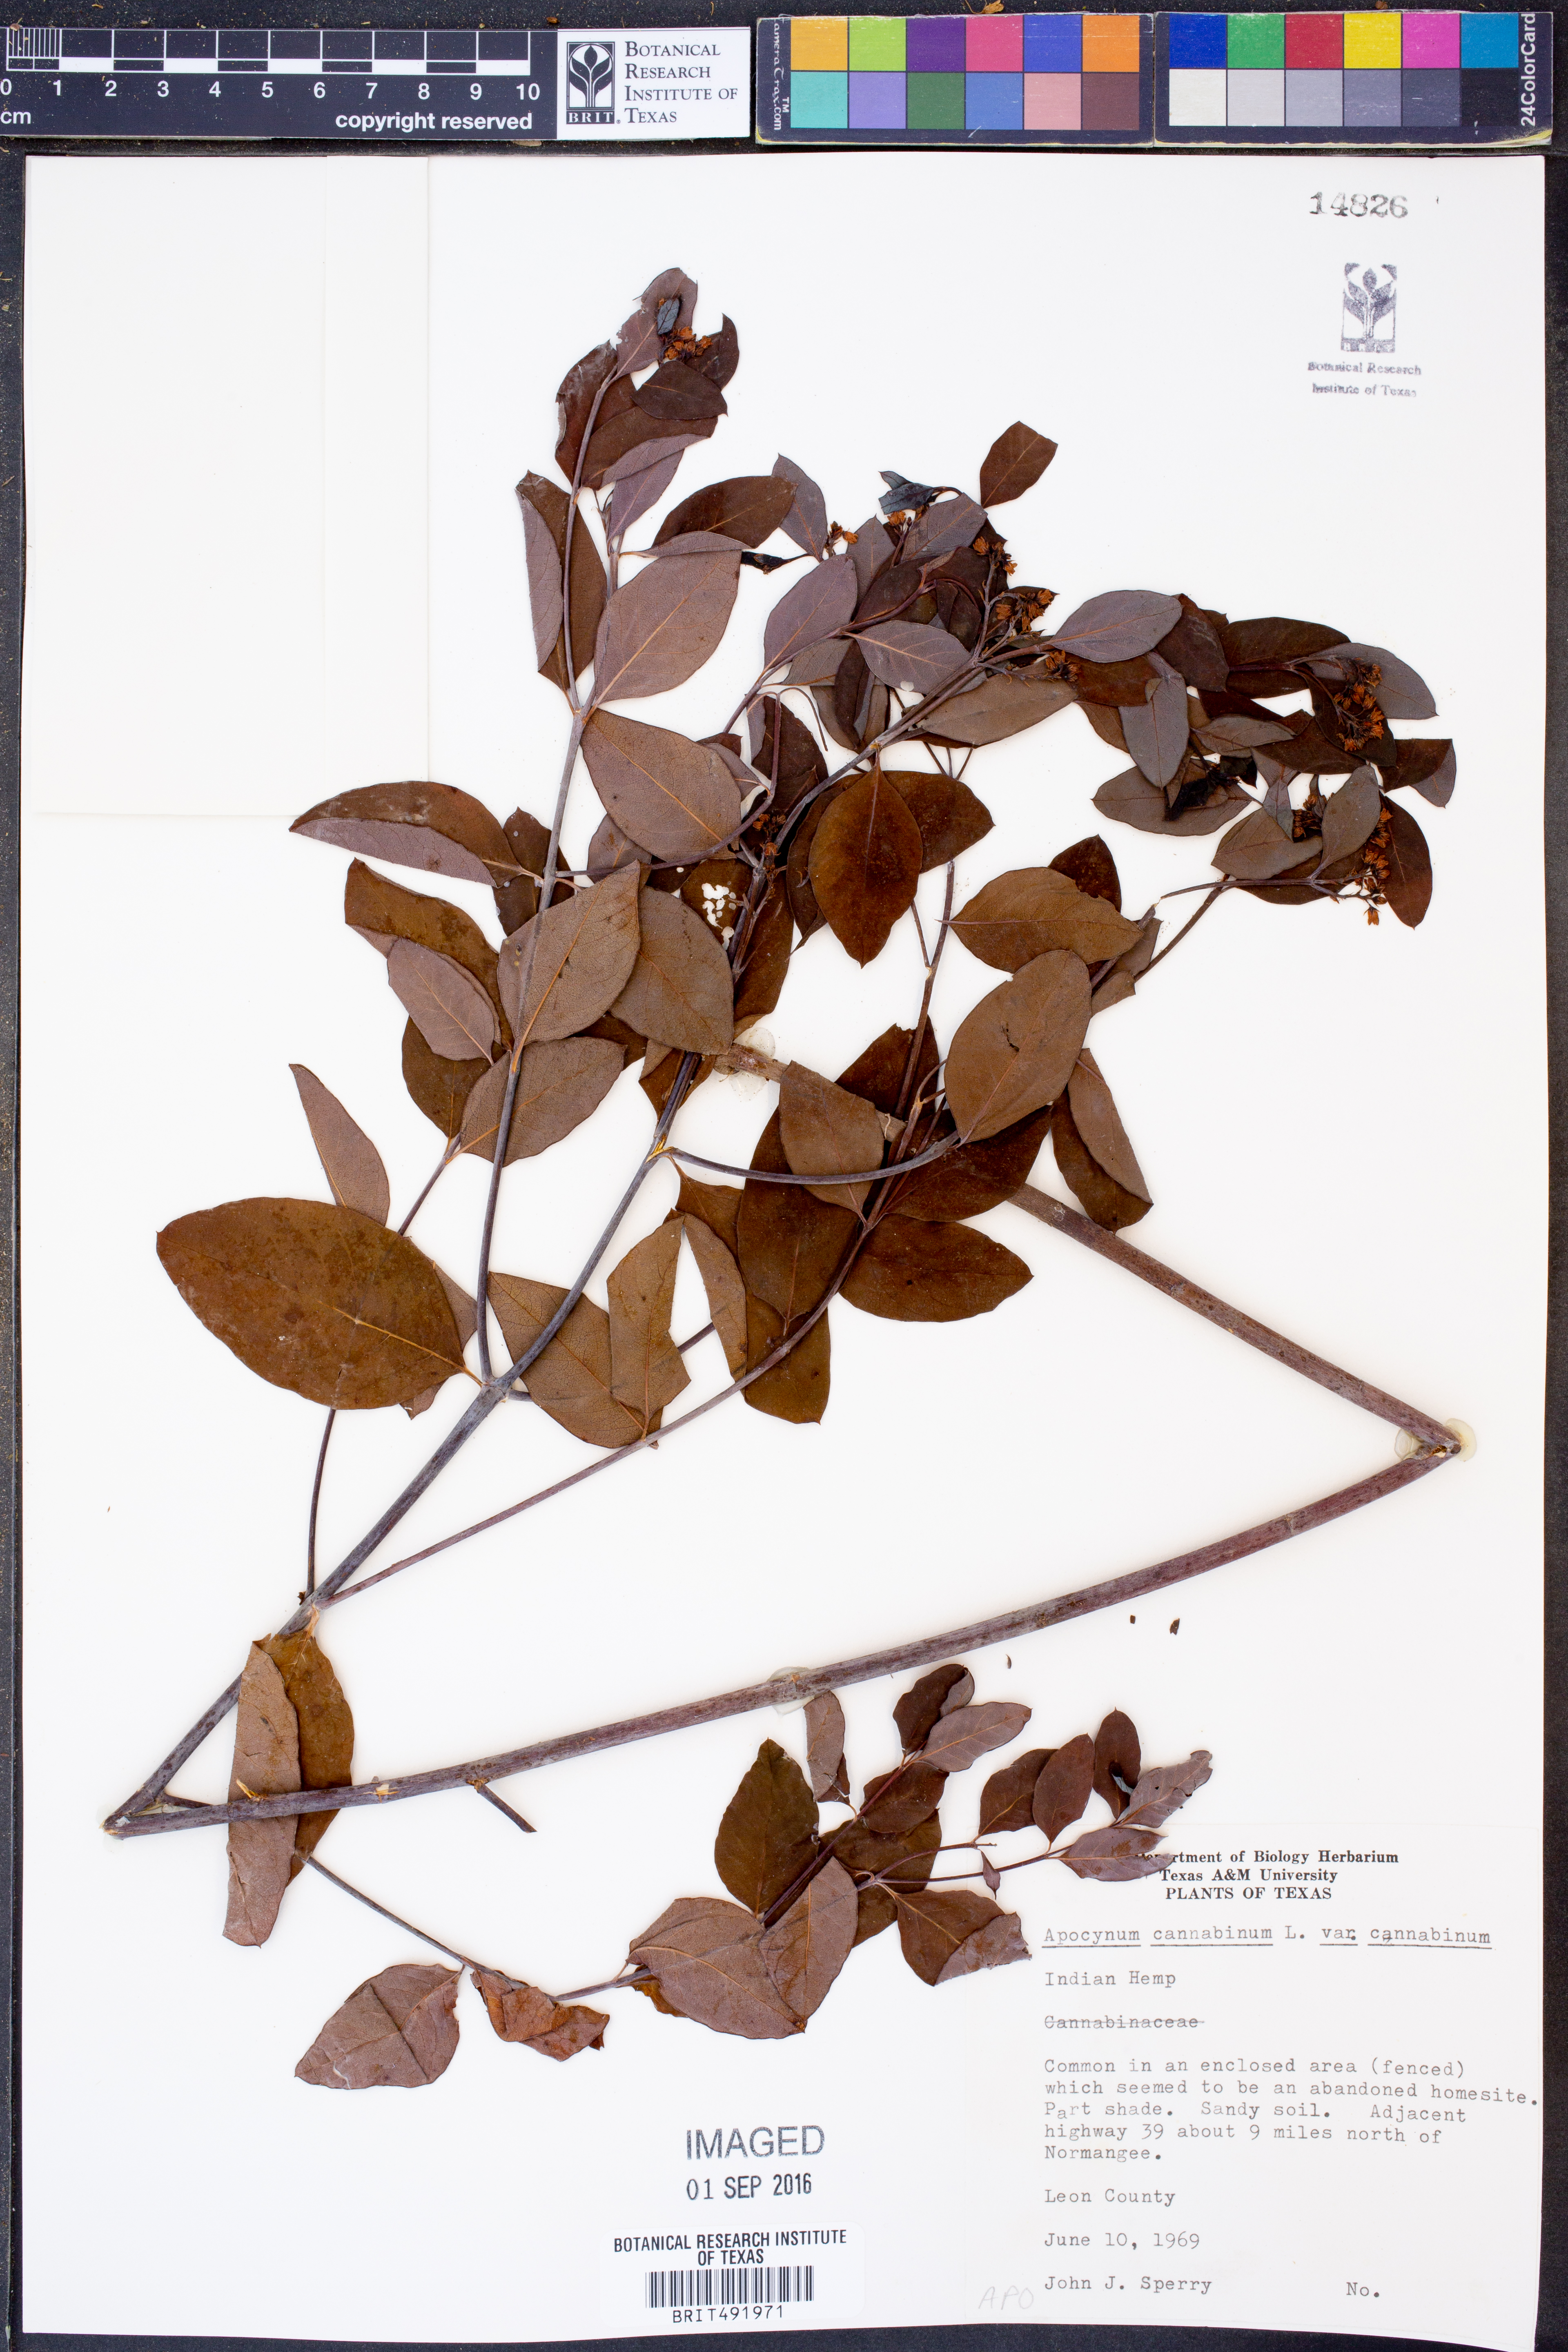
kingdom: Plantae
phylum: Tracheophyta
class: Magnoliopsida
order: Gentianales
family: Apocynaceae
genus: Apocynum
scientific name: Apocynum cannabinum
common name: Hemp dogbane
